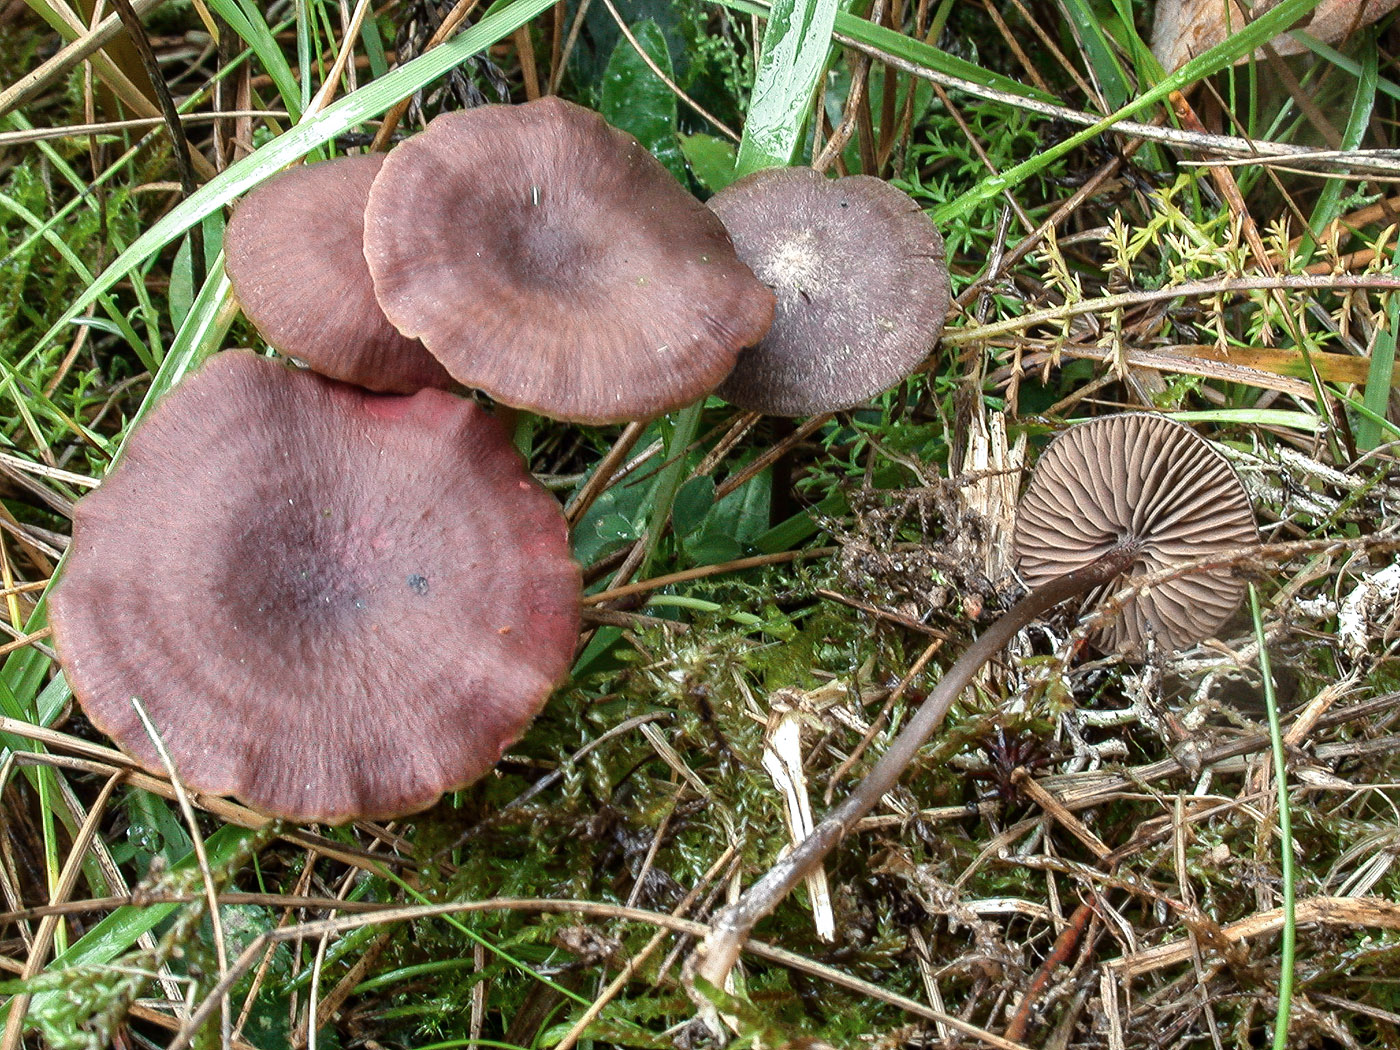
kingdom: Fungi
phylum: Basidiomycota
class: Agaricomycetes
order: Agaricales
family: Entolomataceae
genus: Entoloma
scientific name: Entoloma clandestinum
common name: tykbladet rødblad
